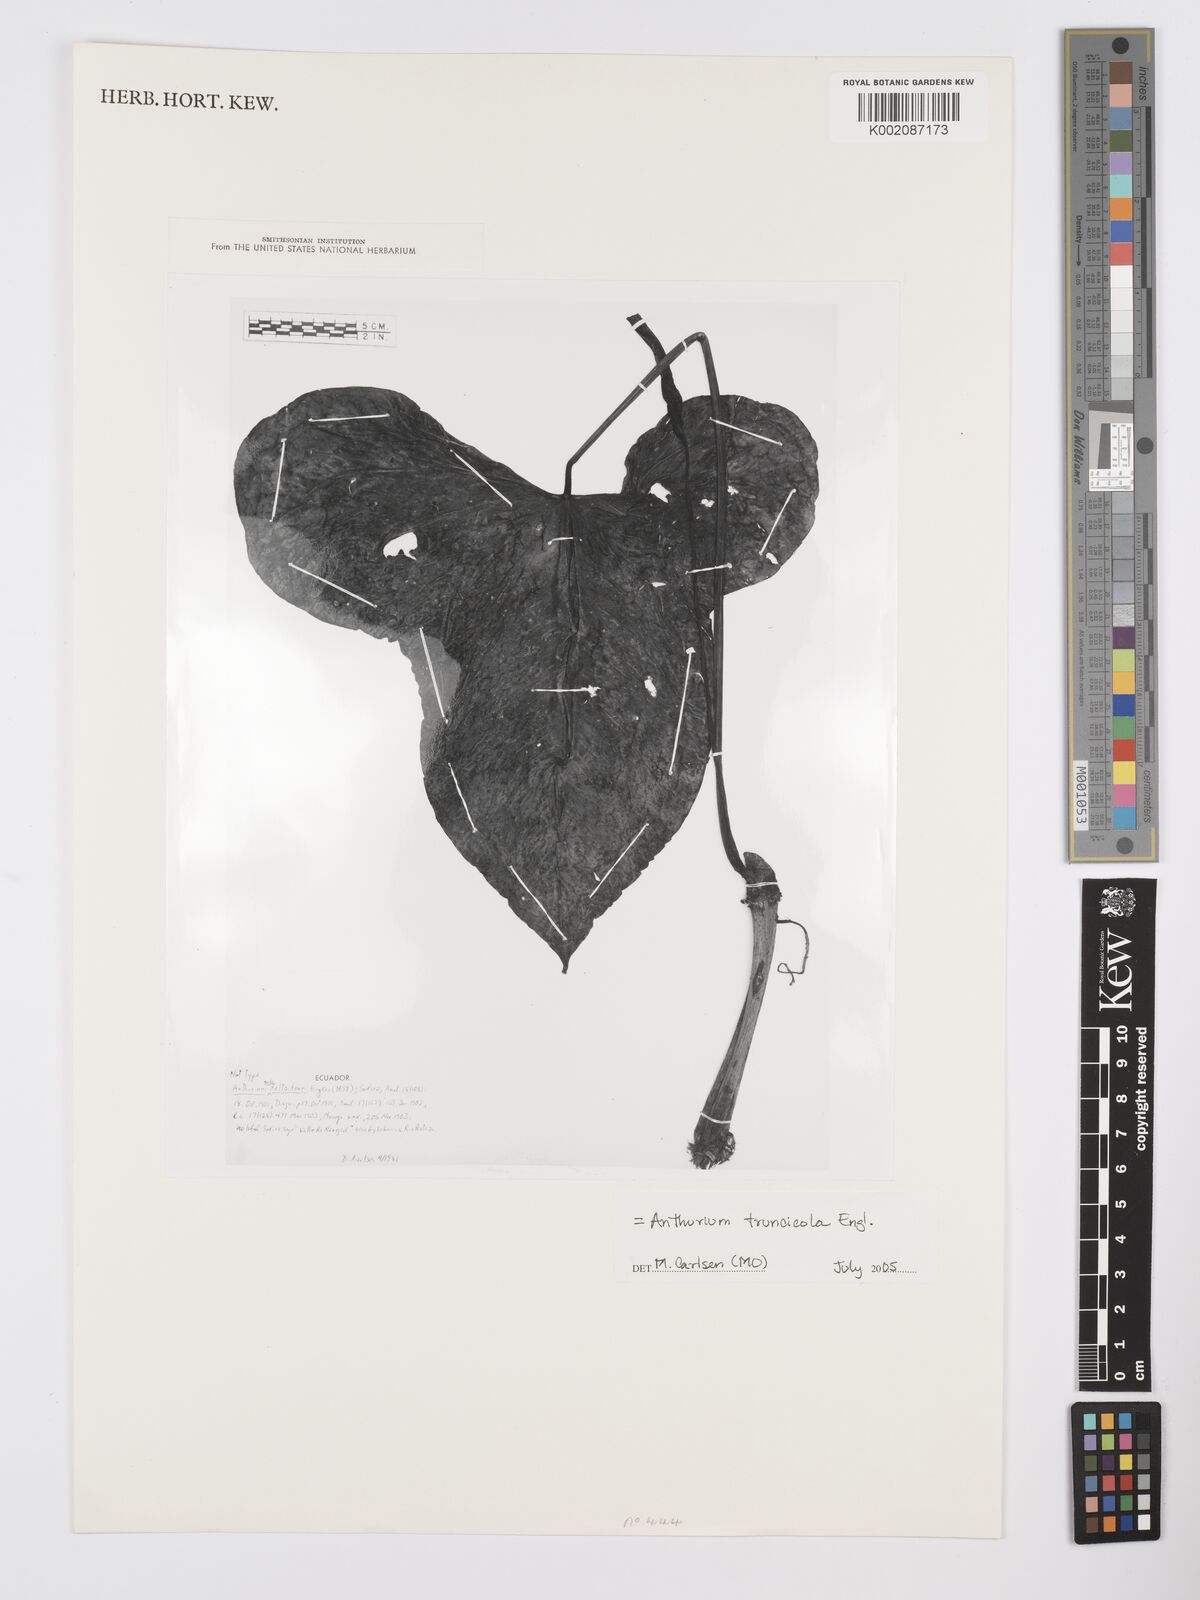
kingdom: Plantae
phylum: Tracheophyta
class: Liliopsida
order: Alismatales
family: Araceae
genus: Anthurium
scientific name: Anthurium truncicola
